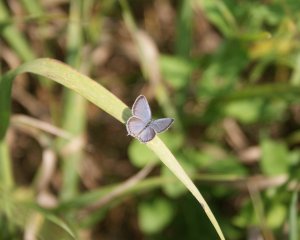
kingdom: Animalia
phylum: Arthropoda
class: Insecta
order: Lepidoptera
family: Lycaenidae
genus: Elkalyce
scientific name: Elkalyce comyntas
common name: Eastern Tailed-Blue
